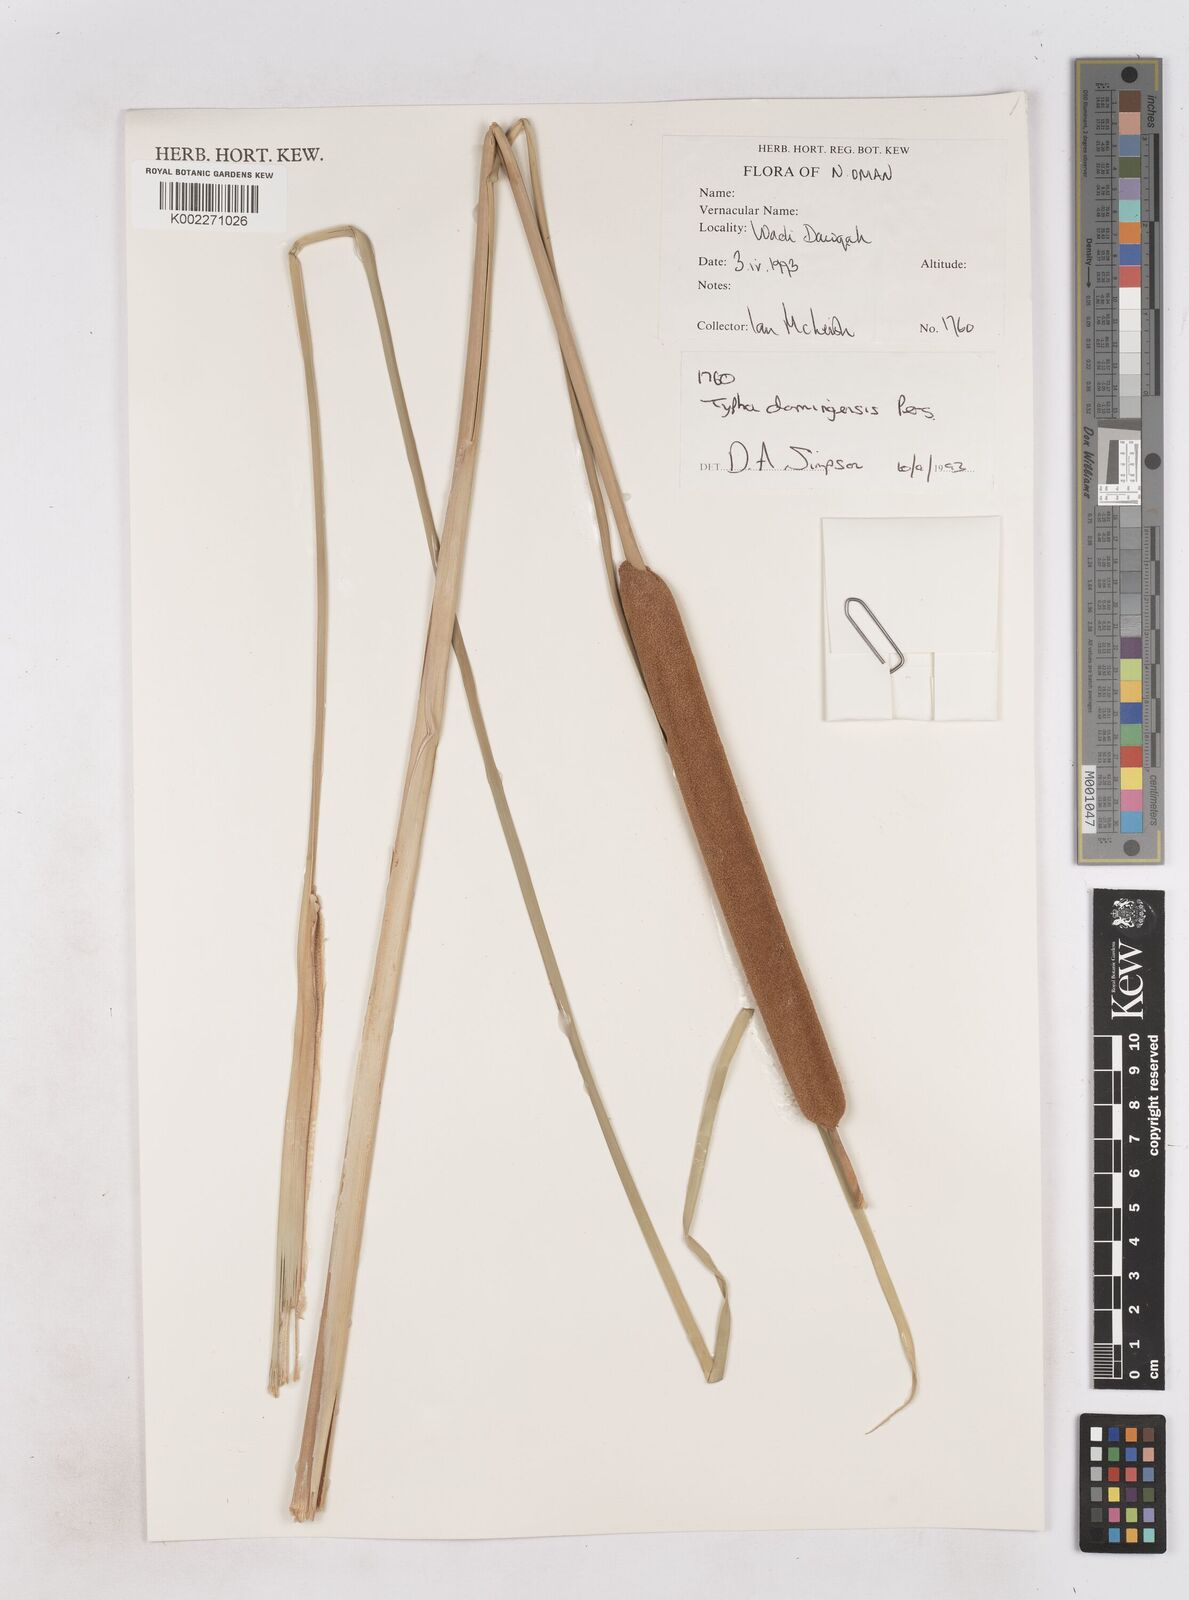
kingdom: Plantae
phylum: Tracheophyta
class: Liliopsida
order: Poales
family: Typhaceae
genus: Typha
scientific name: Typha domingensis
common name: Southern cattail
